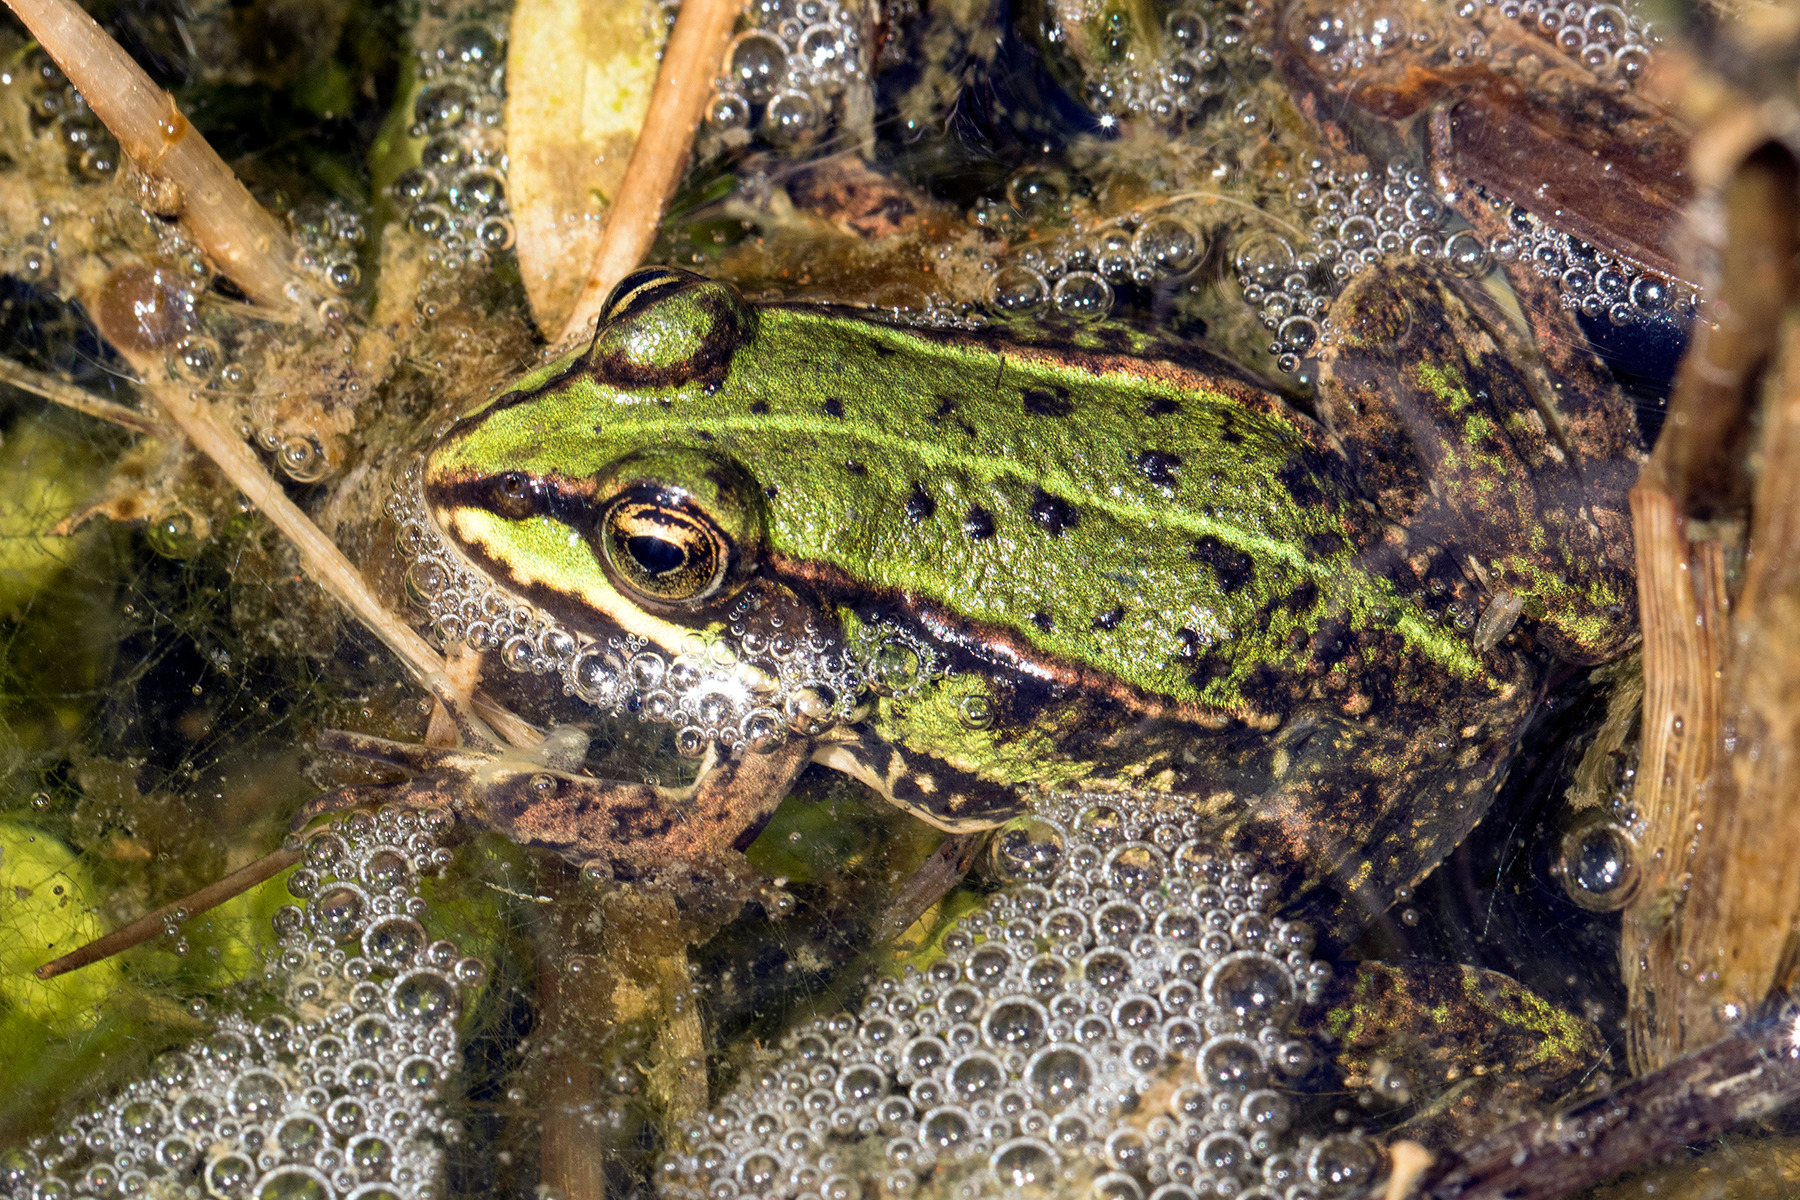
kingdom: Animalia
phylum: Chordata
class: Amphibia
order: Anura
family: Ranidae
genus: Pelophylax
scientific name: Pelophylax lessonae
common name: Grøn frø
